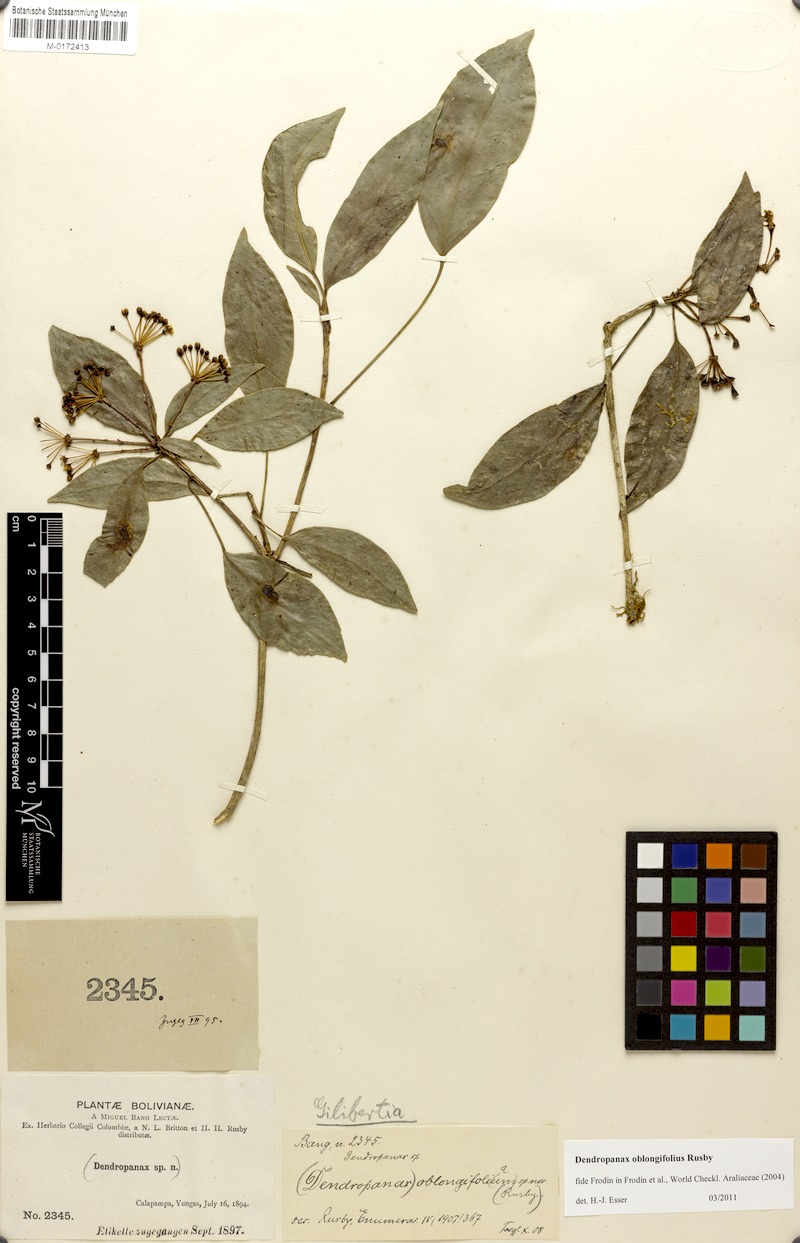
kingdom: Plantae
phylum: Tracheophyta
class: Magnoliopsida
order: Apiales
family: Araliaceae
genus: Dendropanax
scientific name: Dendropanax oblongifolium
